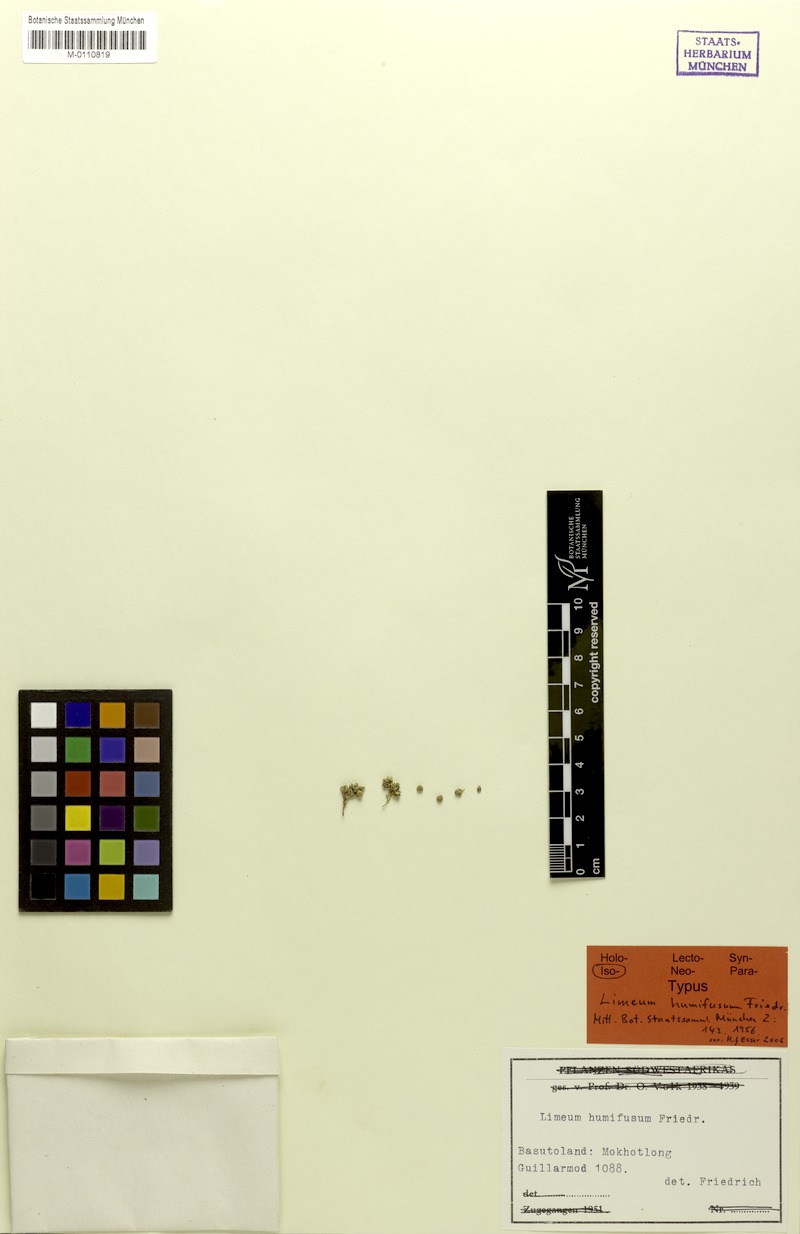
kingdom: Plantae
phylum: Tracheophyta
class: Magnoliopsida
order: Caryophyllales
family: Limeaceae
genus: Limeum
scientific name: Limeum humifusum
